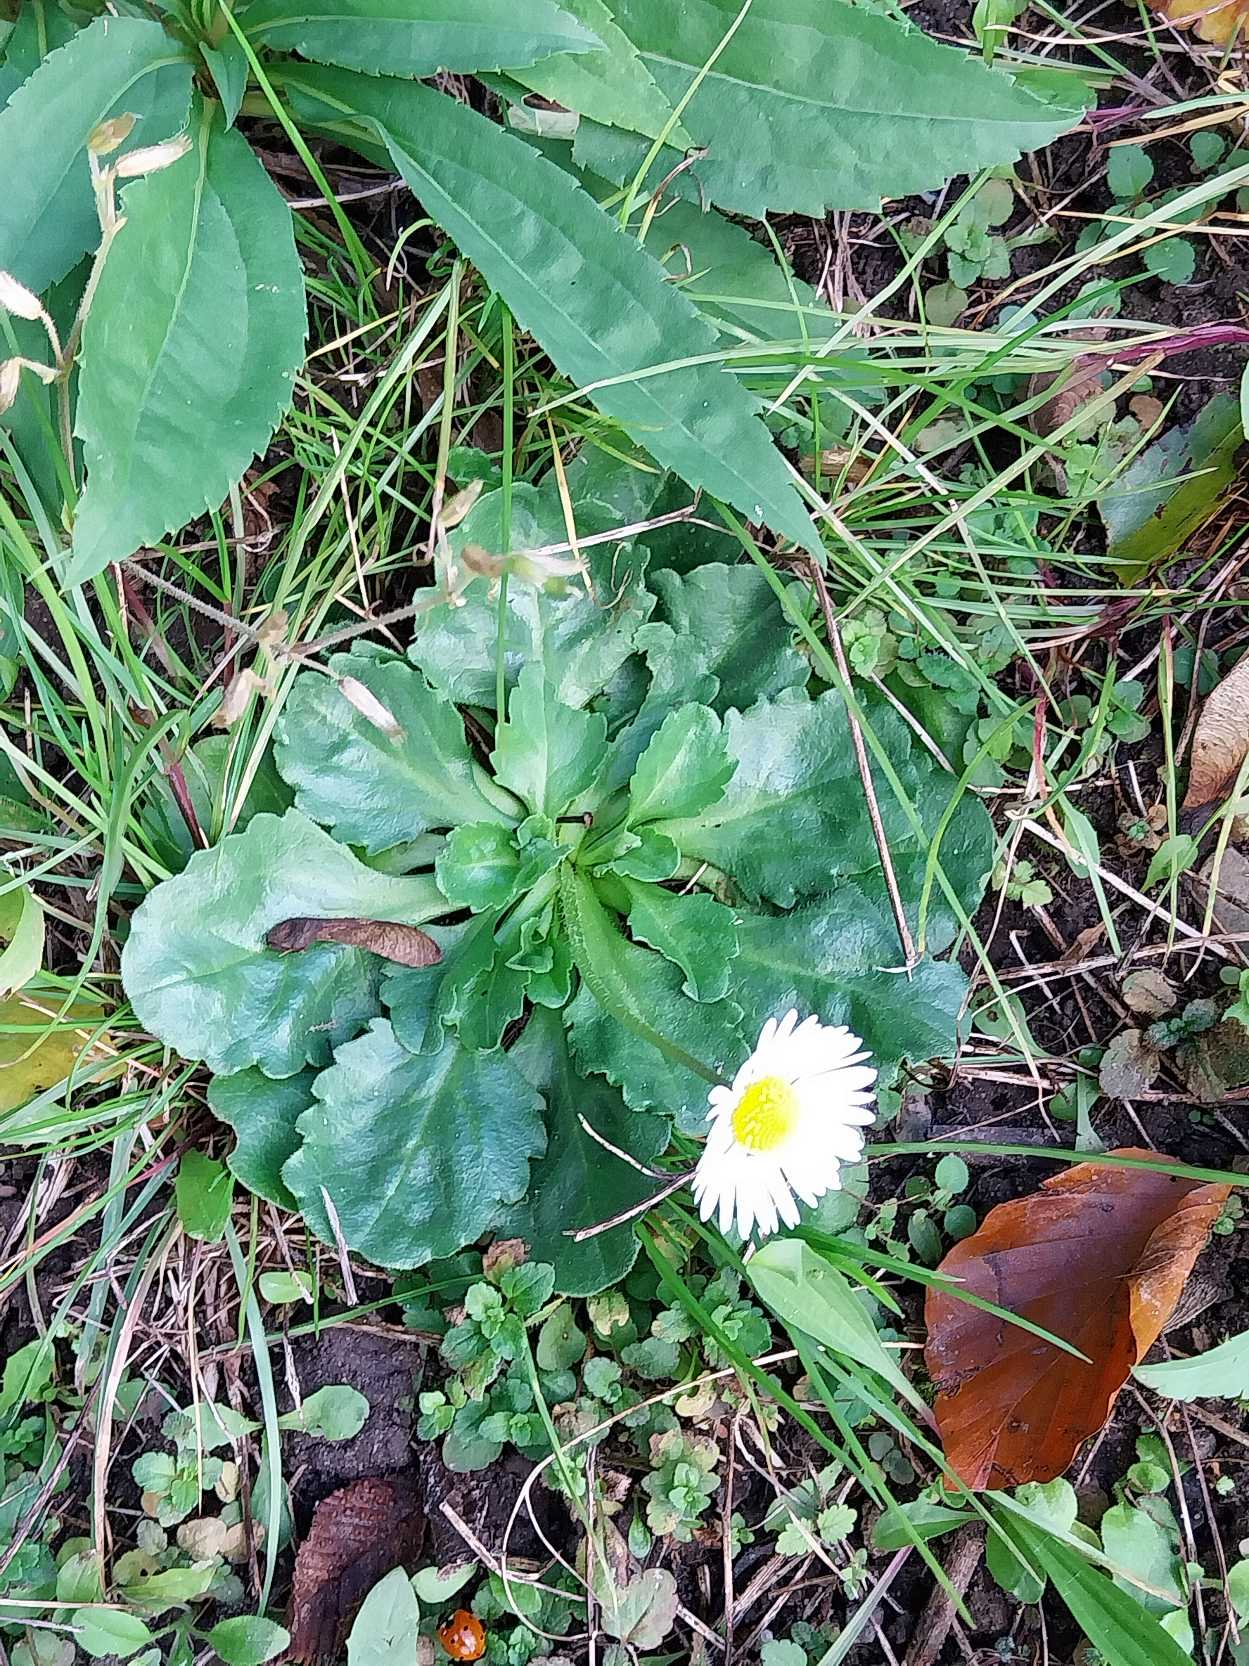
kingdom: Plantae
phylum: Tracheophyta
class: Magnoliopsida
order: Asterales
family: Asteraceae
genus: Bellis
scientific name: Bellis perennis
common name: Tusindfryd
